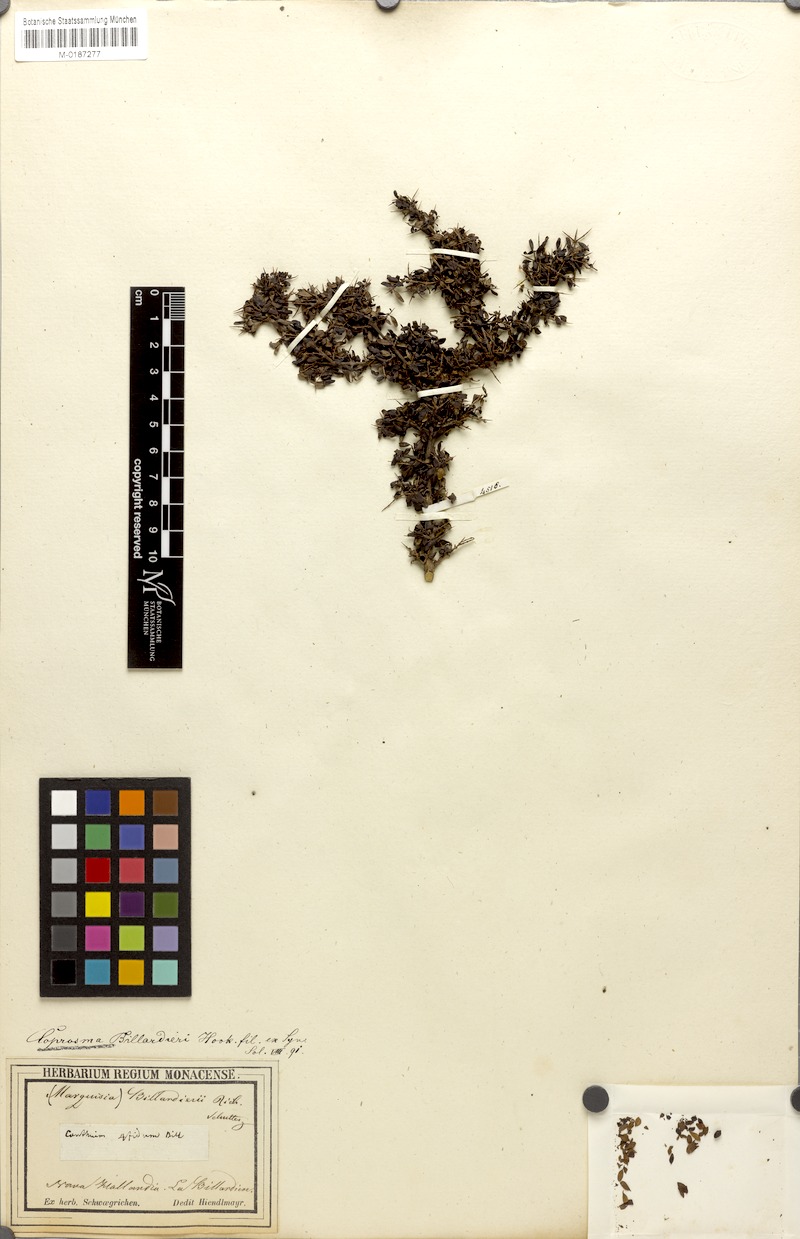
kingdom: Plantae
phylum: Tracheophyta
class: Magnoliopsida
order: Gentianales
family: Rubiaceae
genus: Coprosma
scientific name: Coprosma quadrifida
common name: Prickly currantbush
